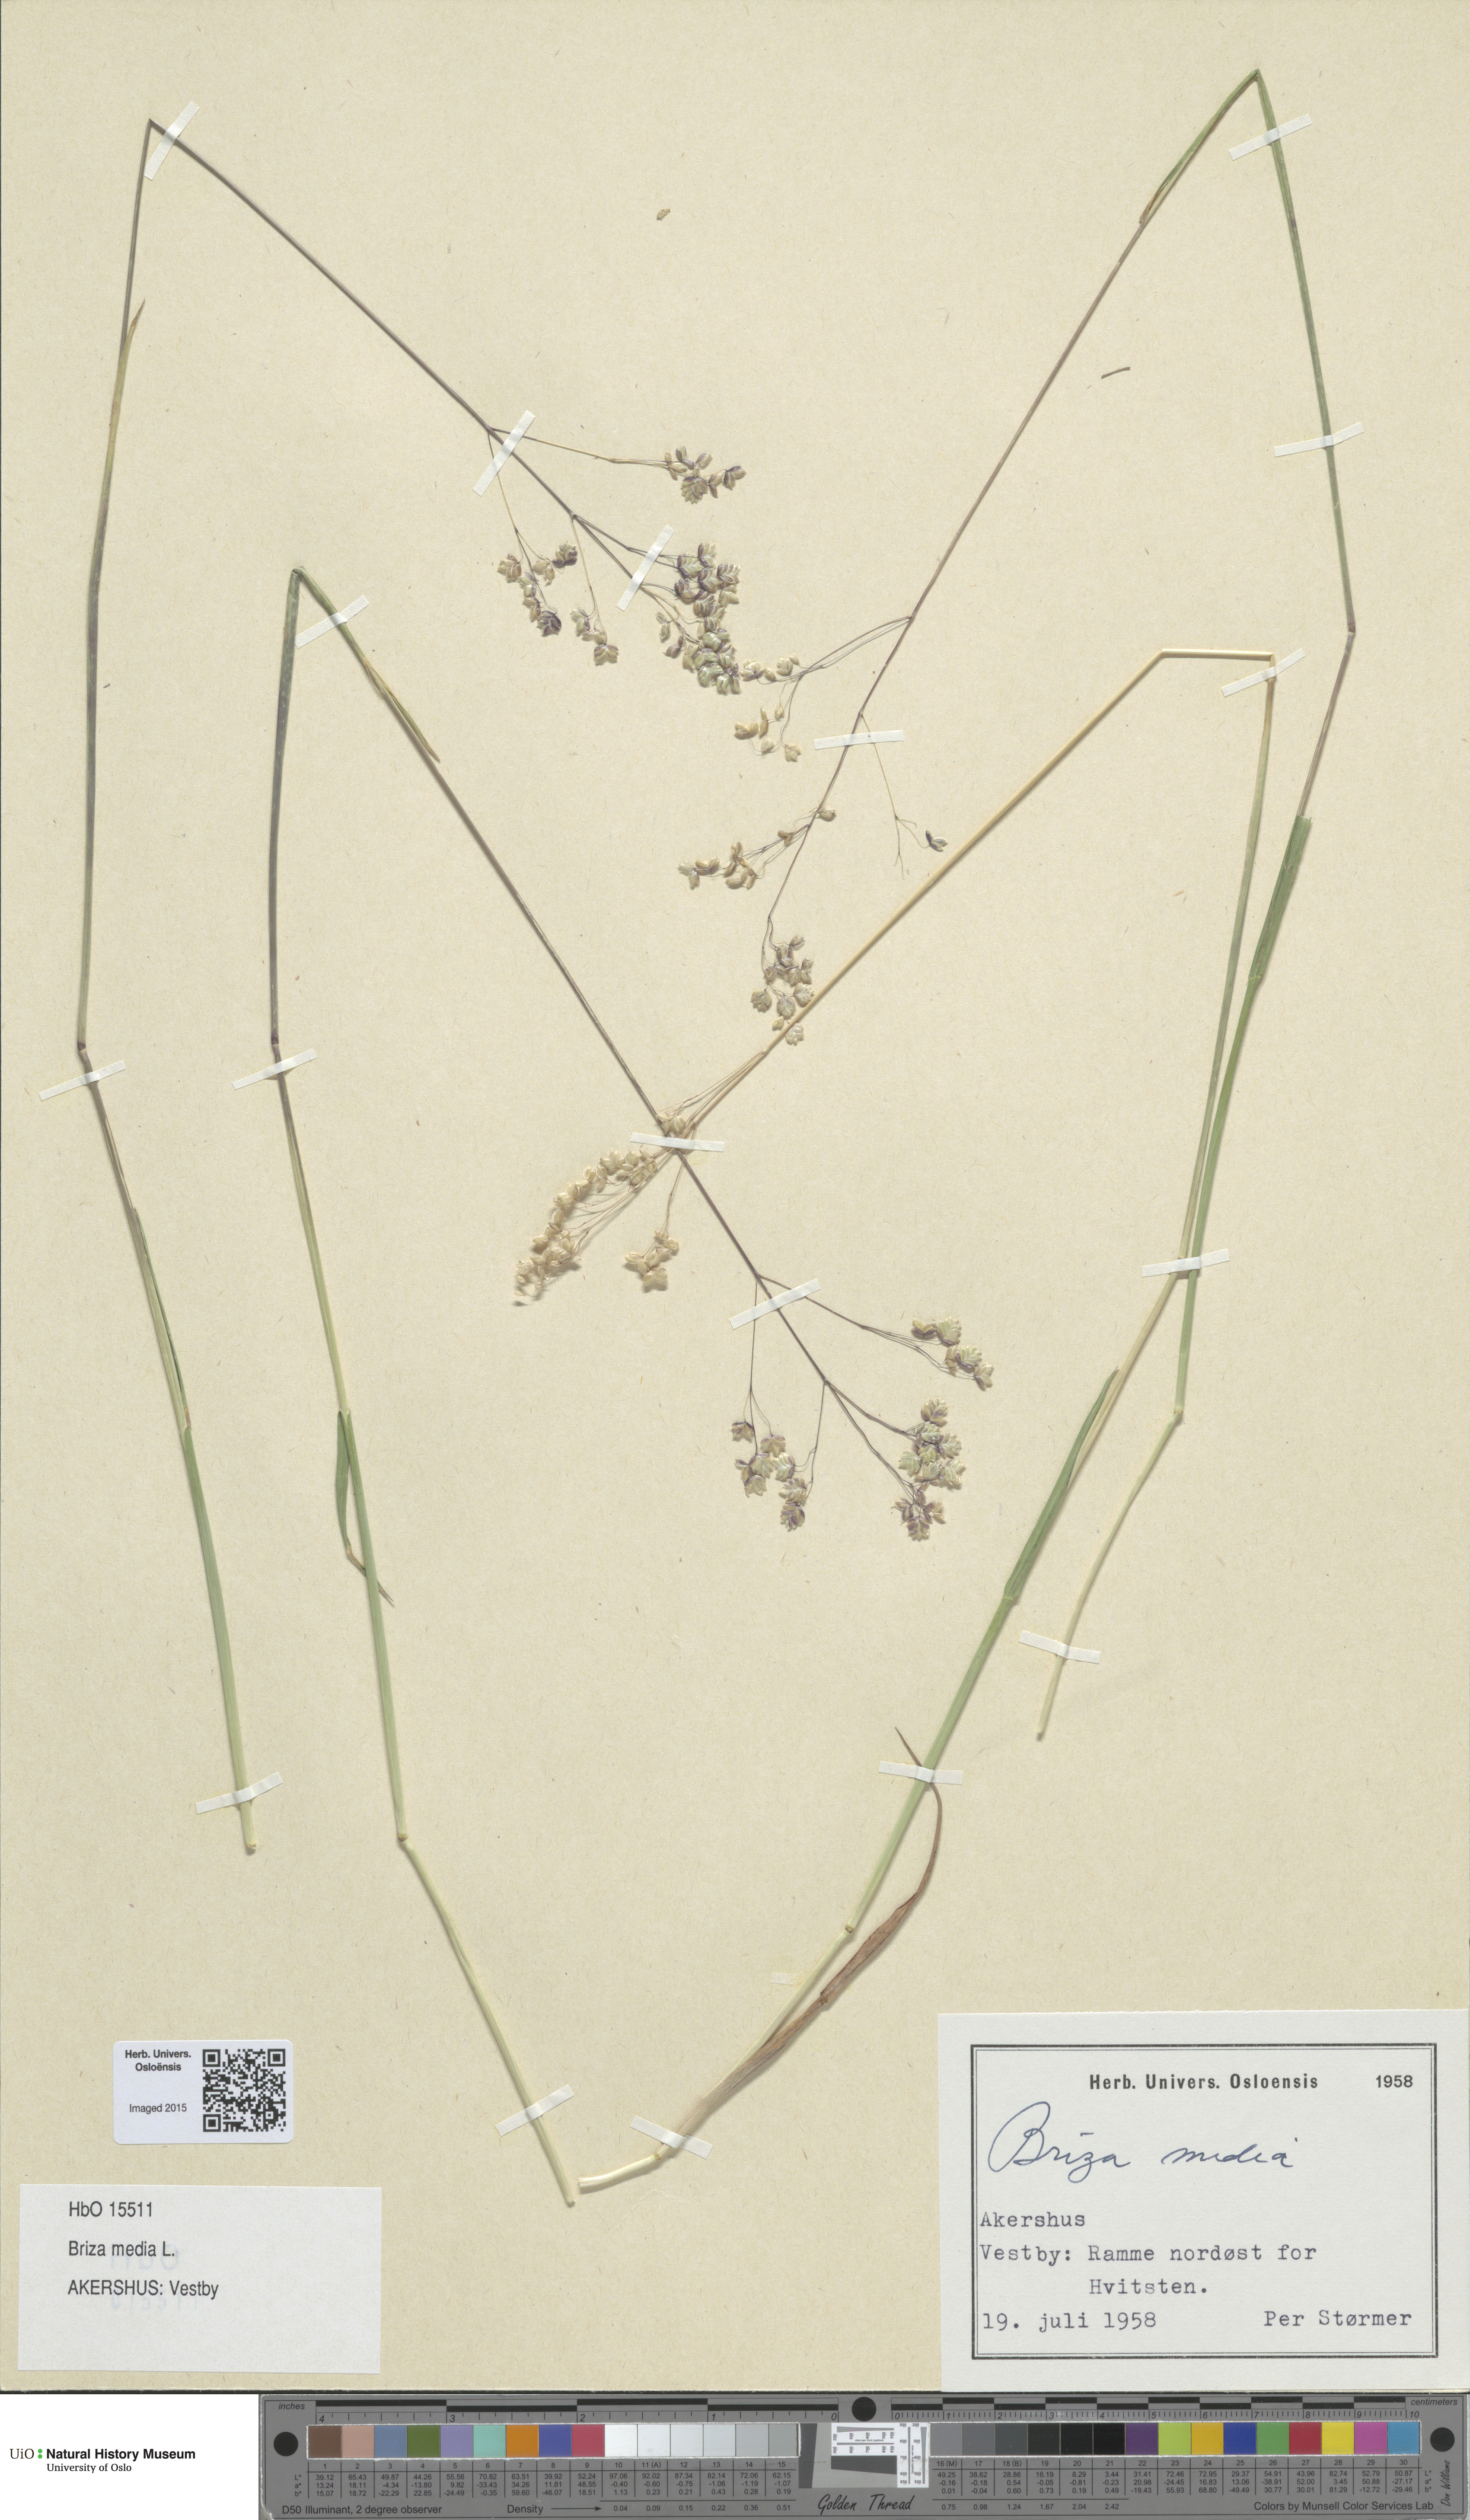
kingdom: Plantae
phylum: Tracheophyta
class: Liliopsida
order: Poales
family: Poaceae
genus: Briza
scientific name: Briza media
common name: Quaking grass
